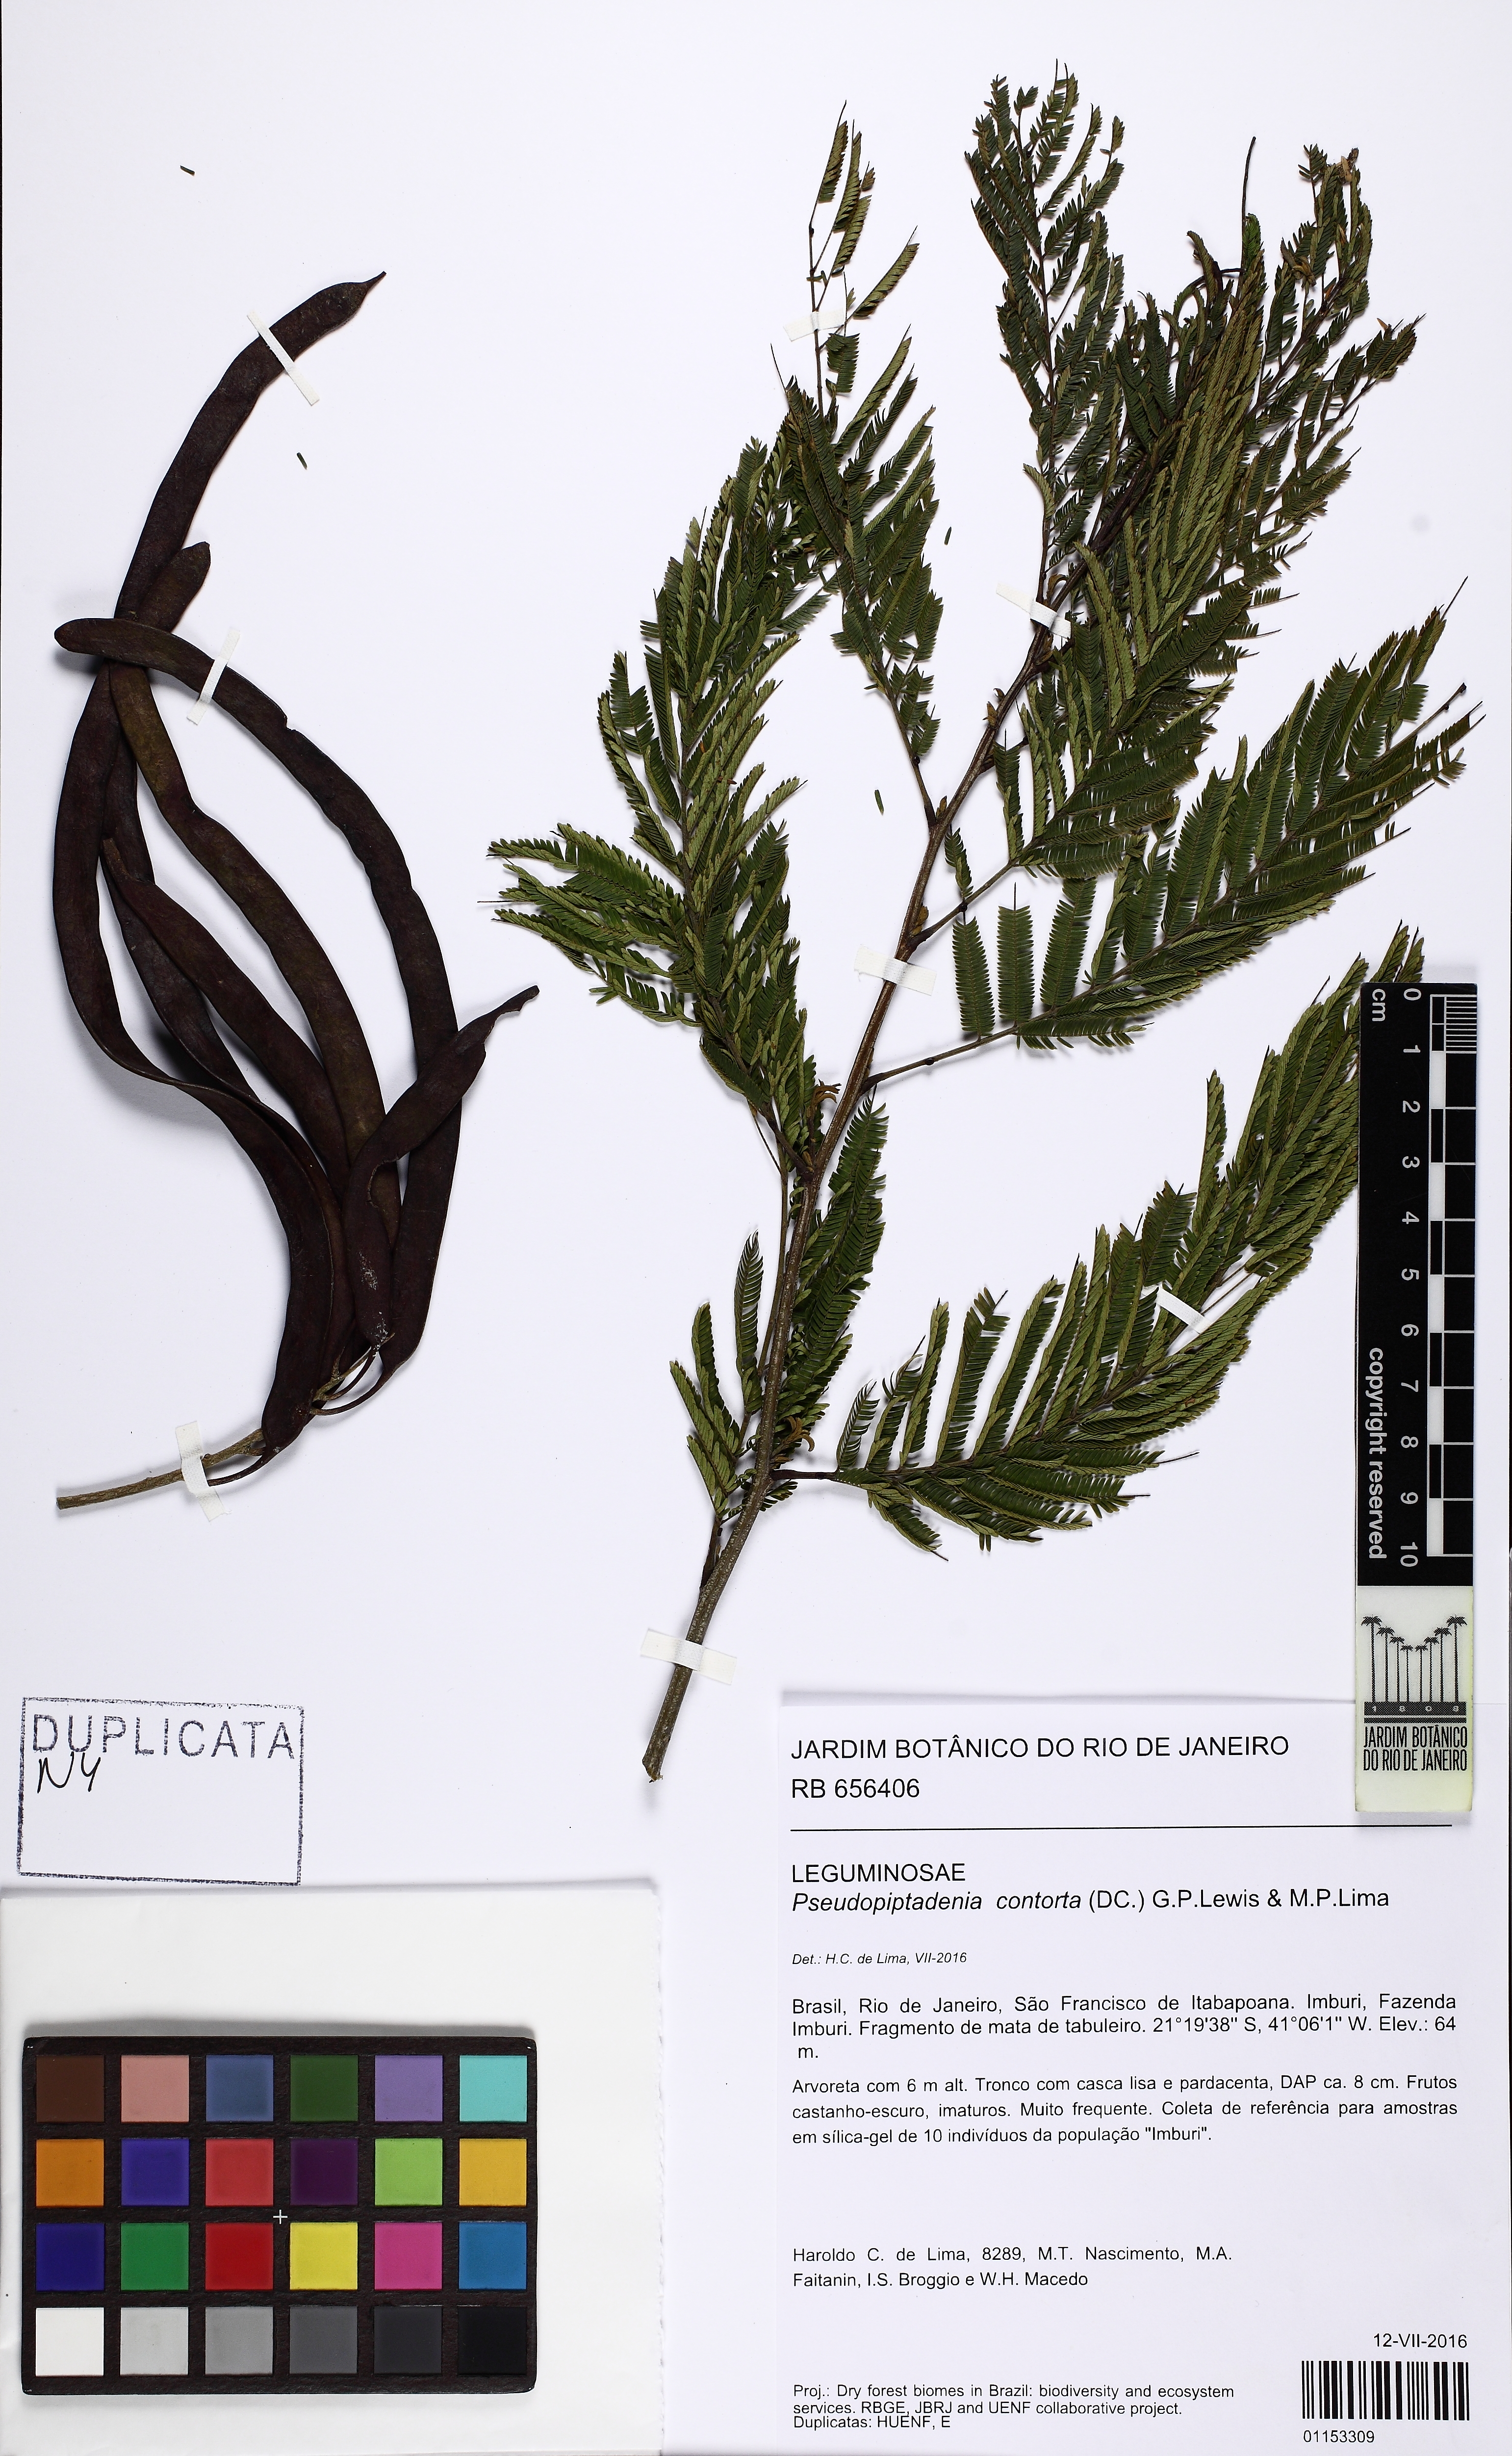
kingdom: Plantae
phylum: Tracheophyta
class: Magnoliopsida
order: Fabales
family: Fabaceae
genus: Pseudopiptadenia
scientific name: Pseudopiptadenia contorta
